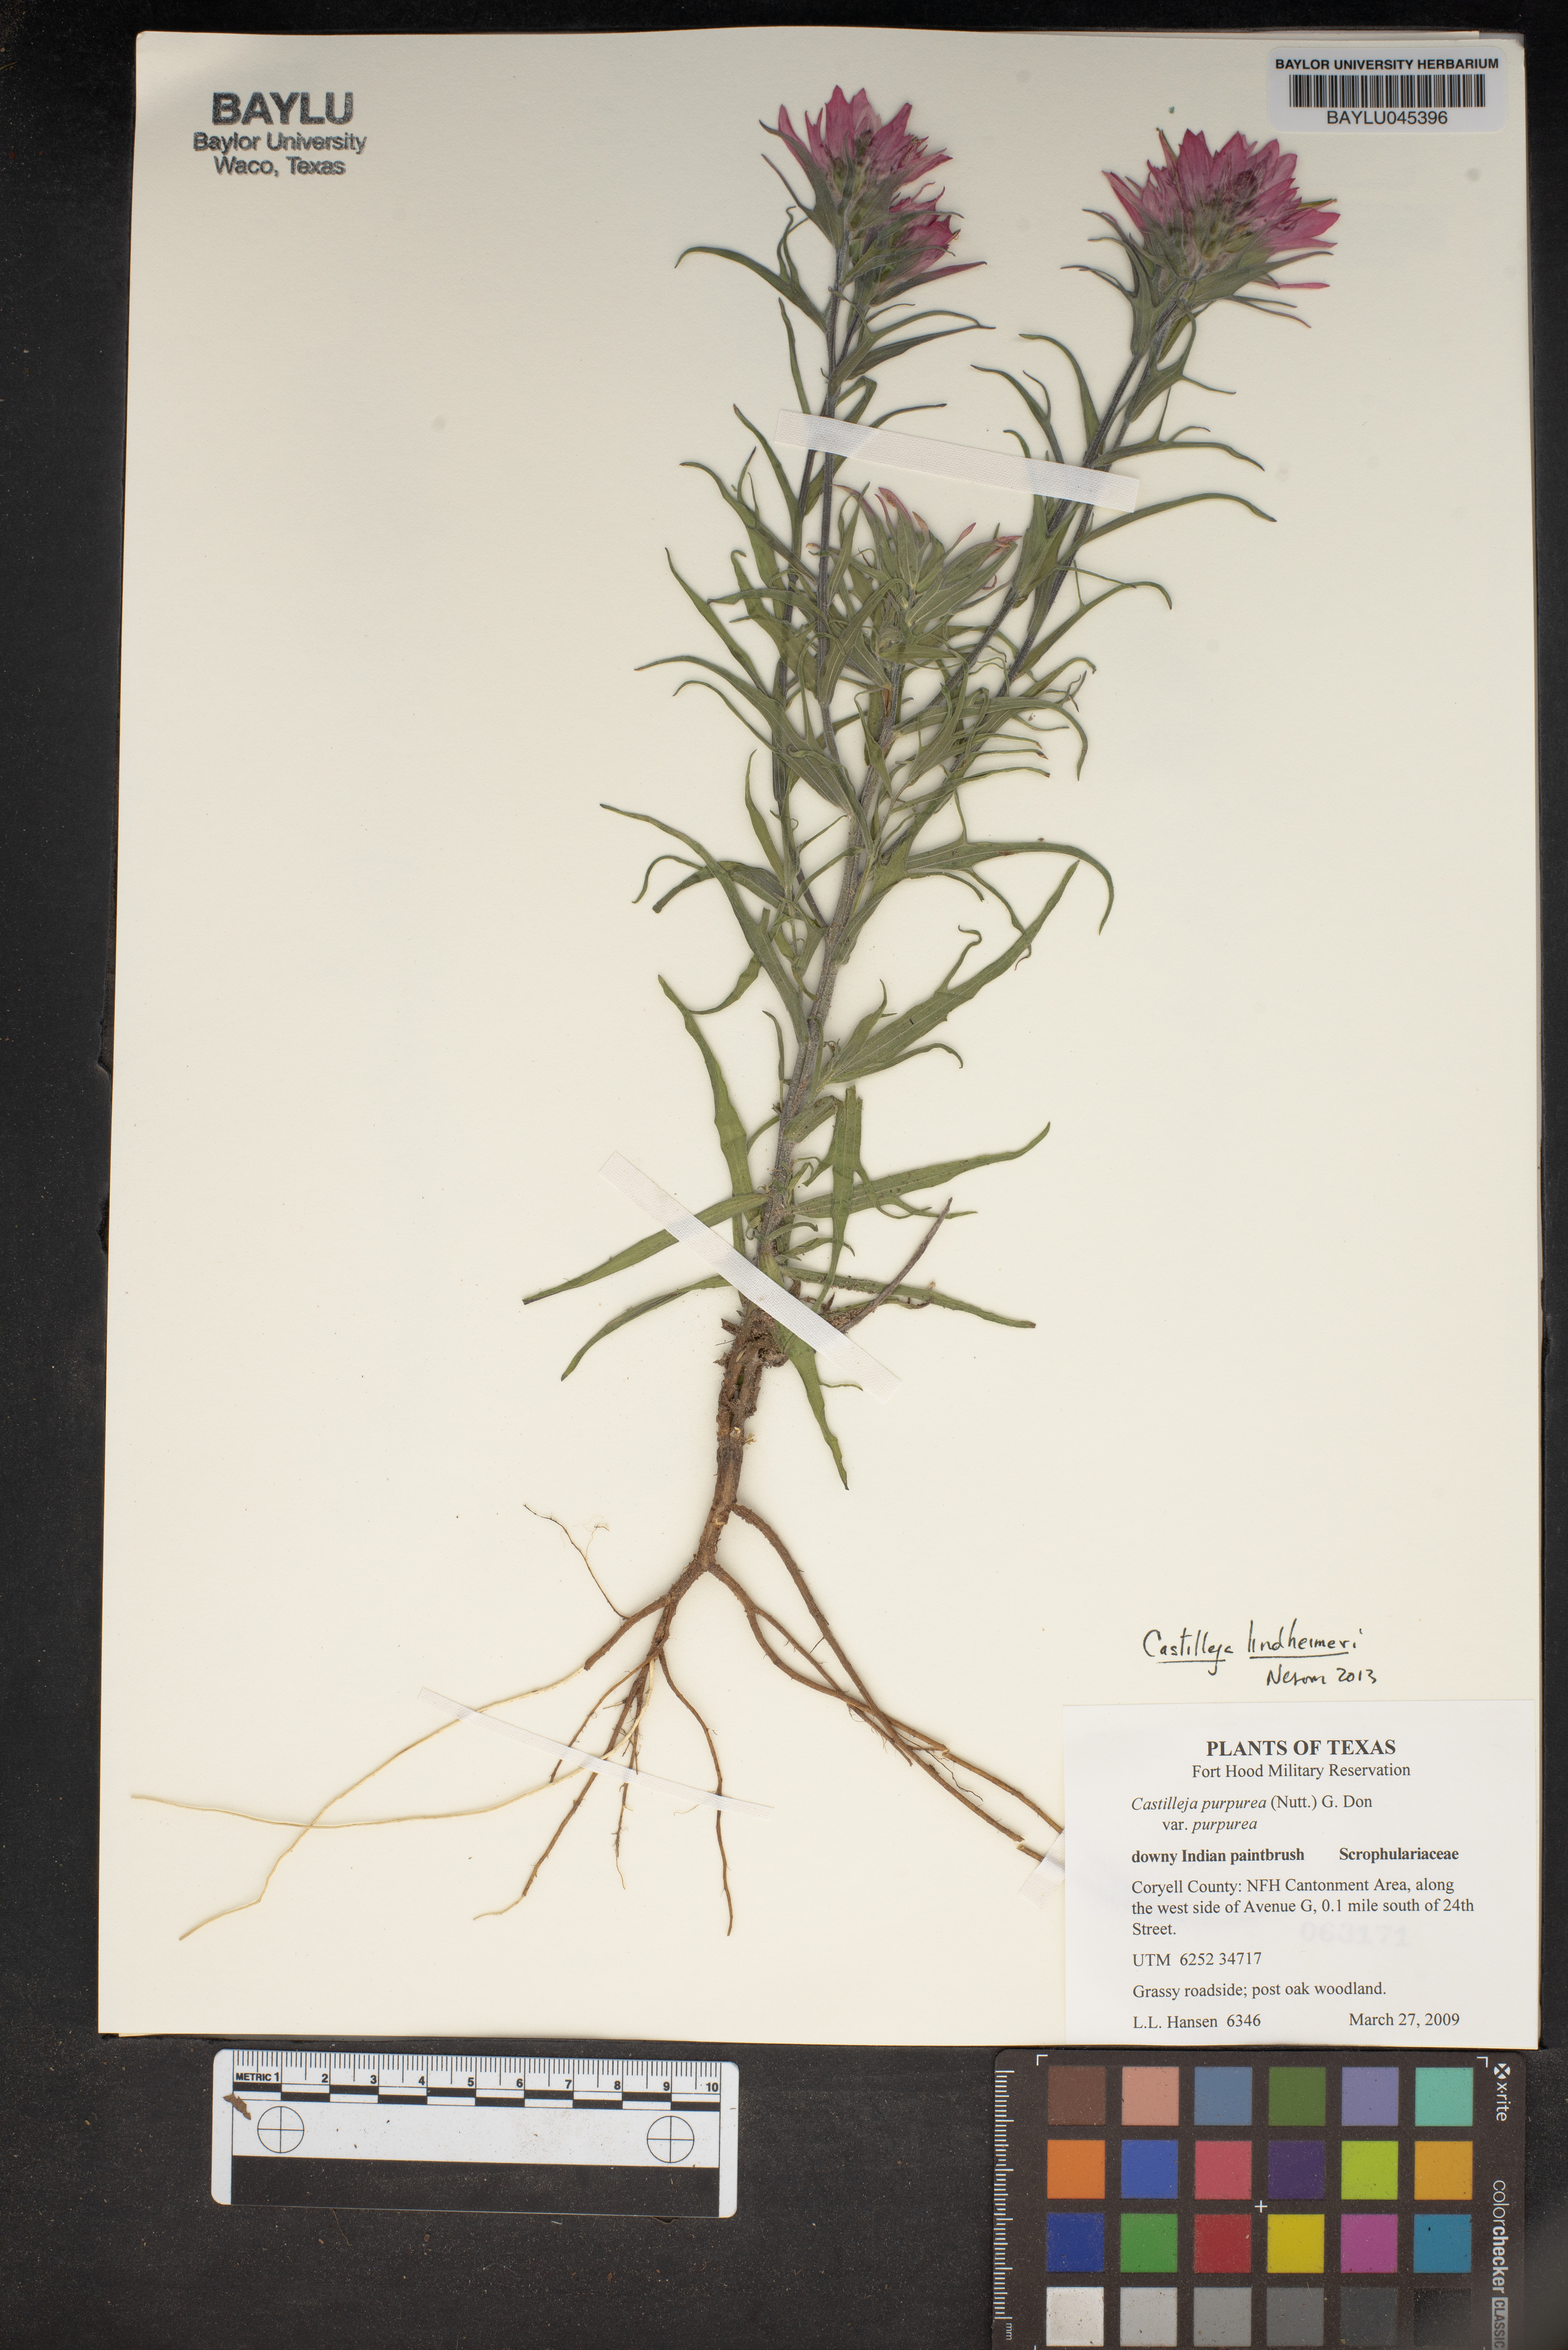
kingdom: Plantae
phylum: Tracheophyta
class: Magnoliopsida
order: Lamiales
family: Orobanchaceae
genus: Castilleja
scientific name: Castilleja purpurea
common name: Plains paintbrush
